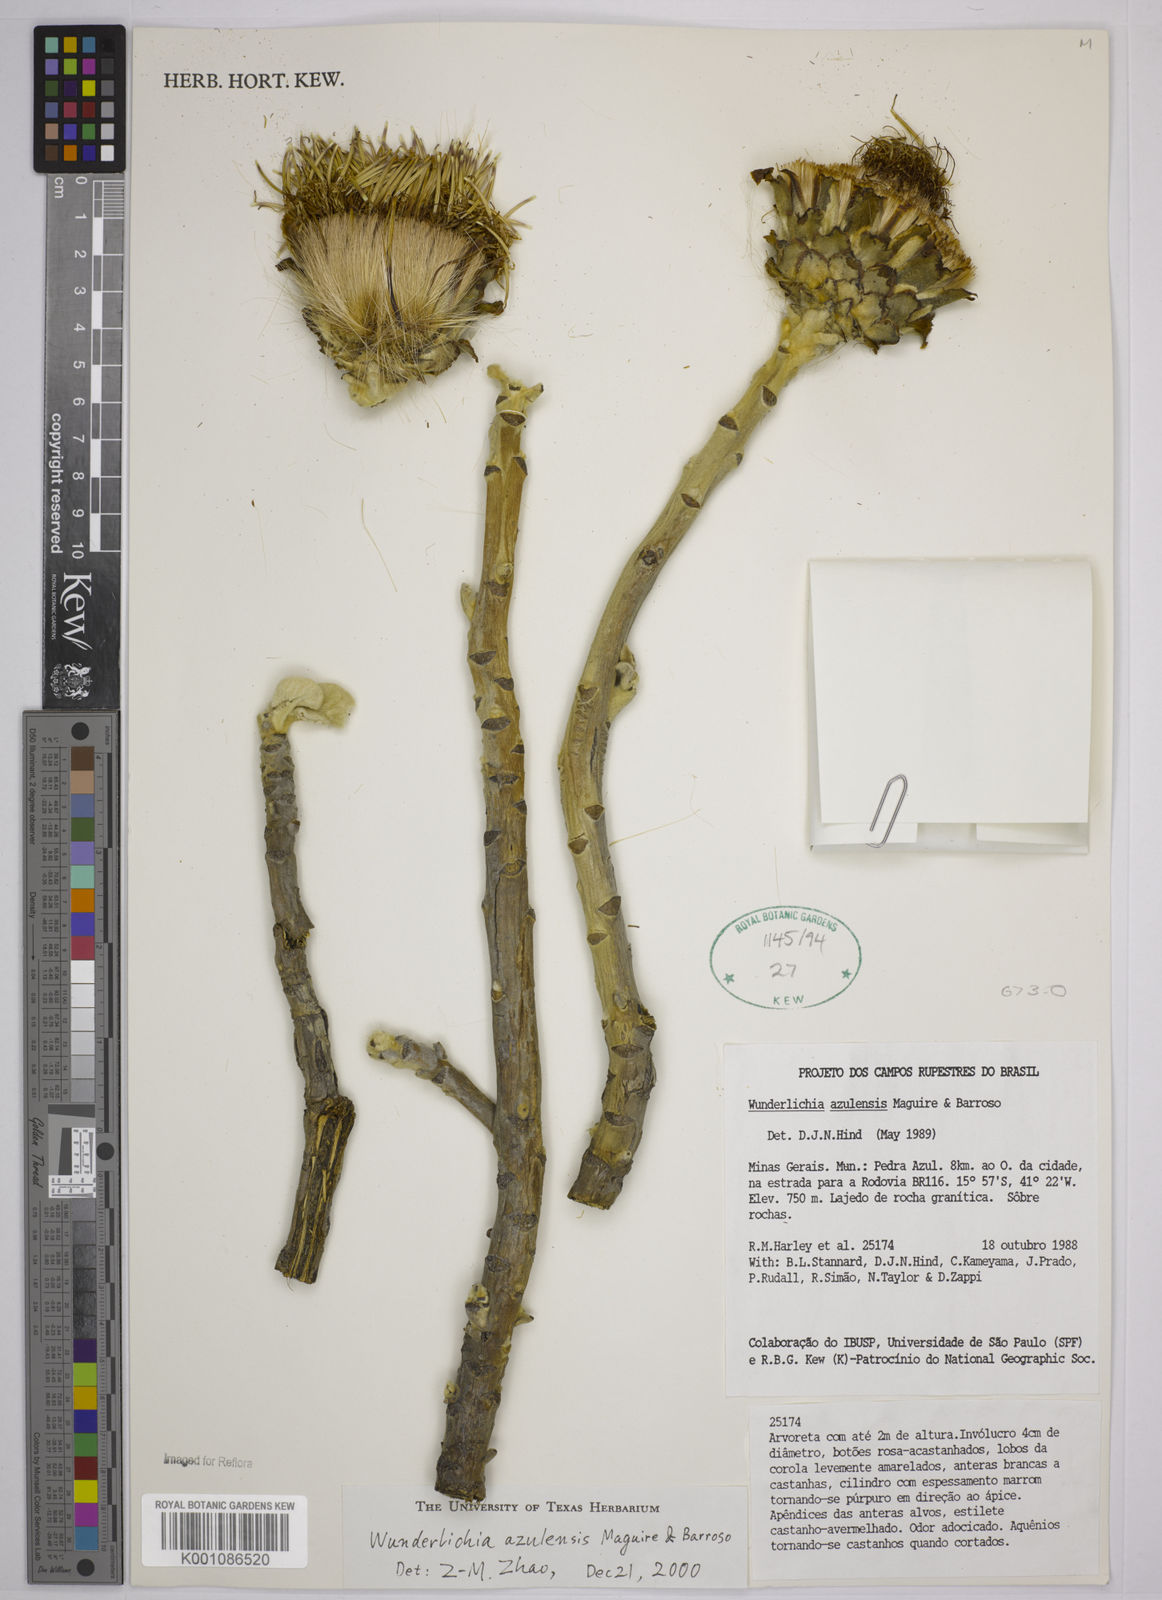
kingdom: Plantae
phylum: Tracheophyta
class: Magnoliopsida
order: Asterales
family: Asteraceae
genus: Wunderlichia
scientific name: Wunderlichia azulensis
